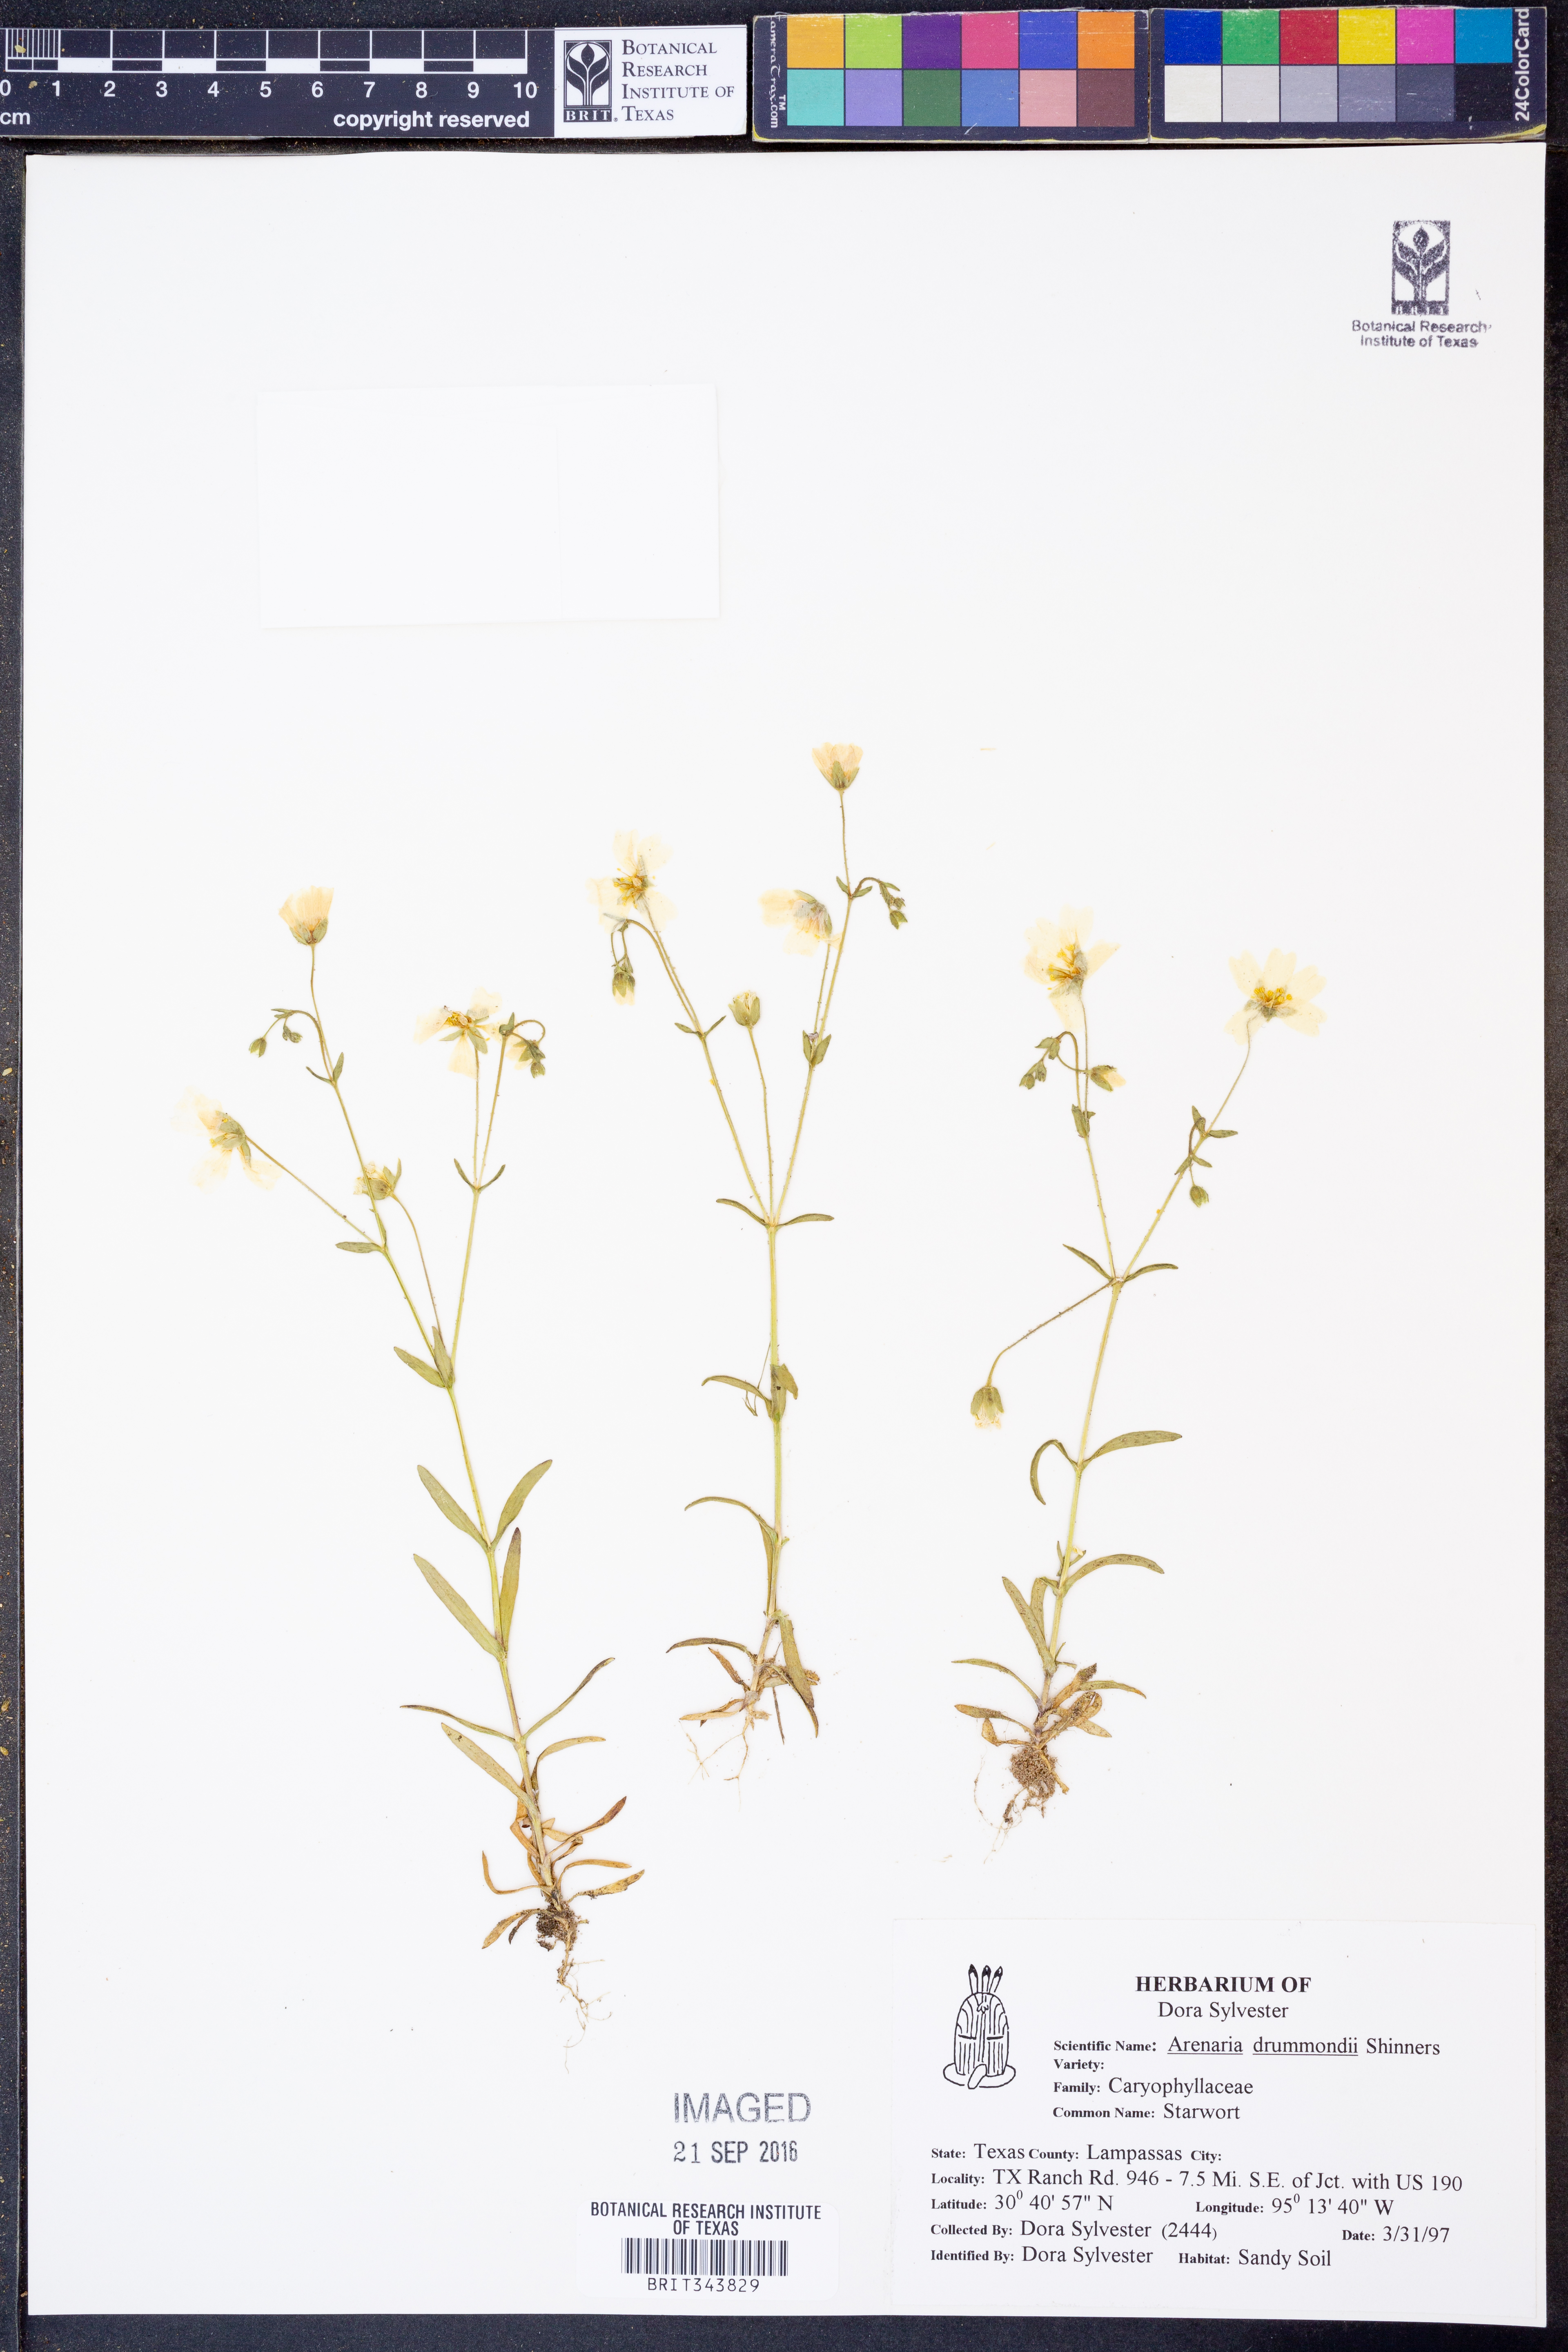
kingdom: Plantae
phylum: Tracheophyta
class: Magnoliopsida
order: Caryophyllales
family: Caryophyllaceae
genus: Geocarpon
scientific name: Geocarpon nuttallii
